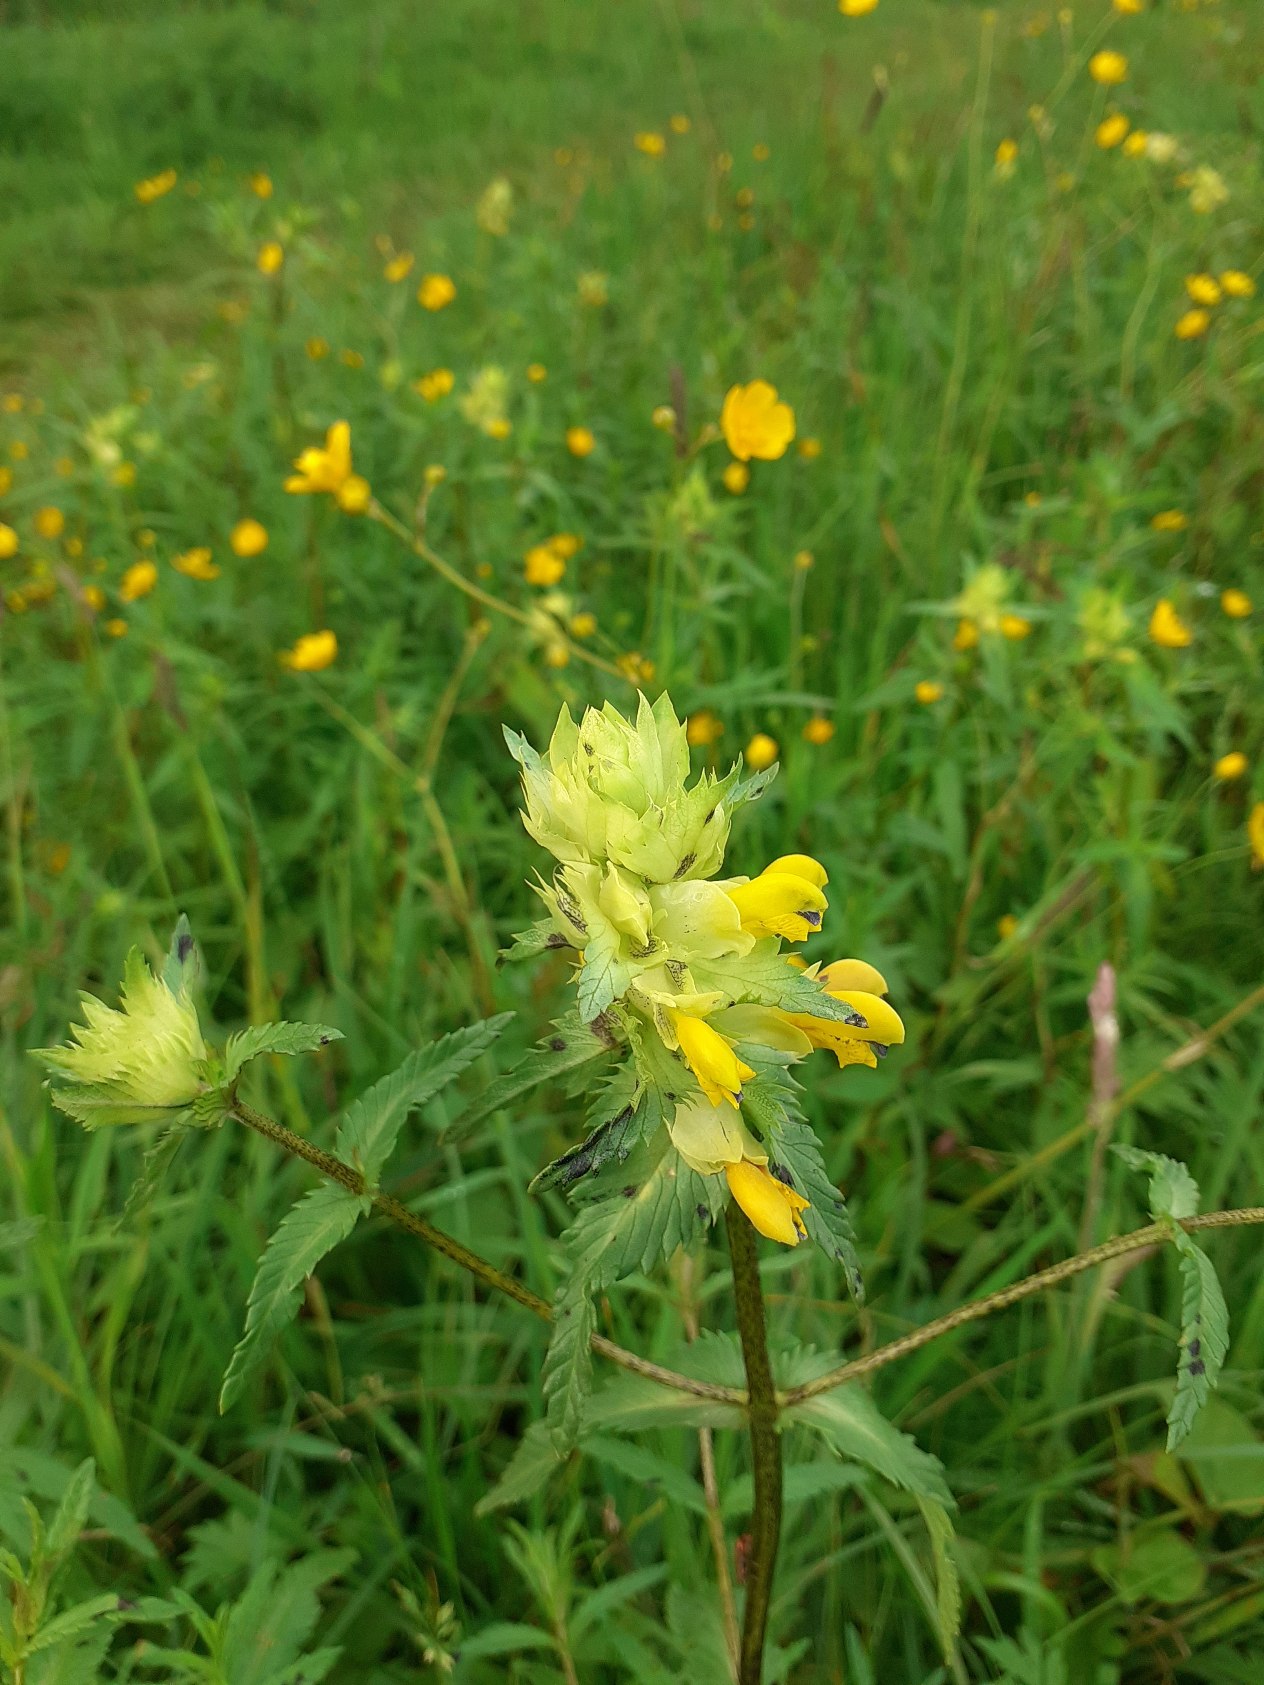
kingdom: Plantae
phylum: Tracheophyta
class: Magnoliopsida
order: Lamiales
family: Orobanchaceae
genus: Rhinanthus
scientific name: Rhinanthus
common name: Stor skjaller
